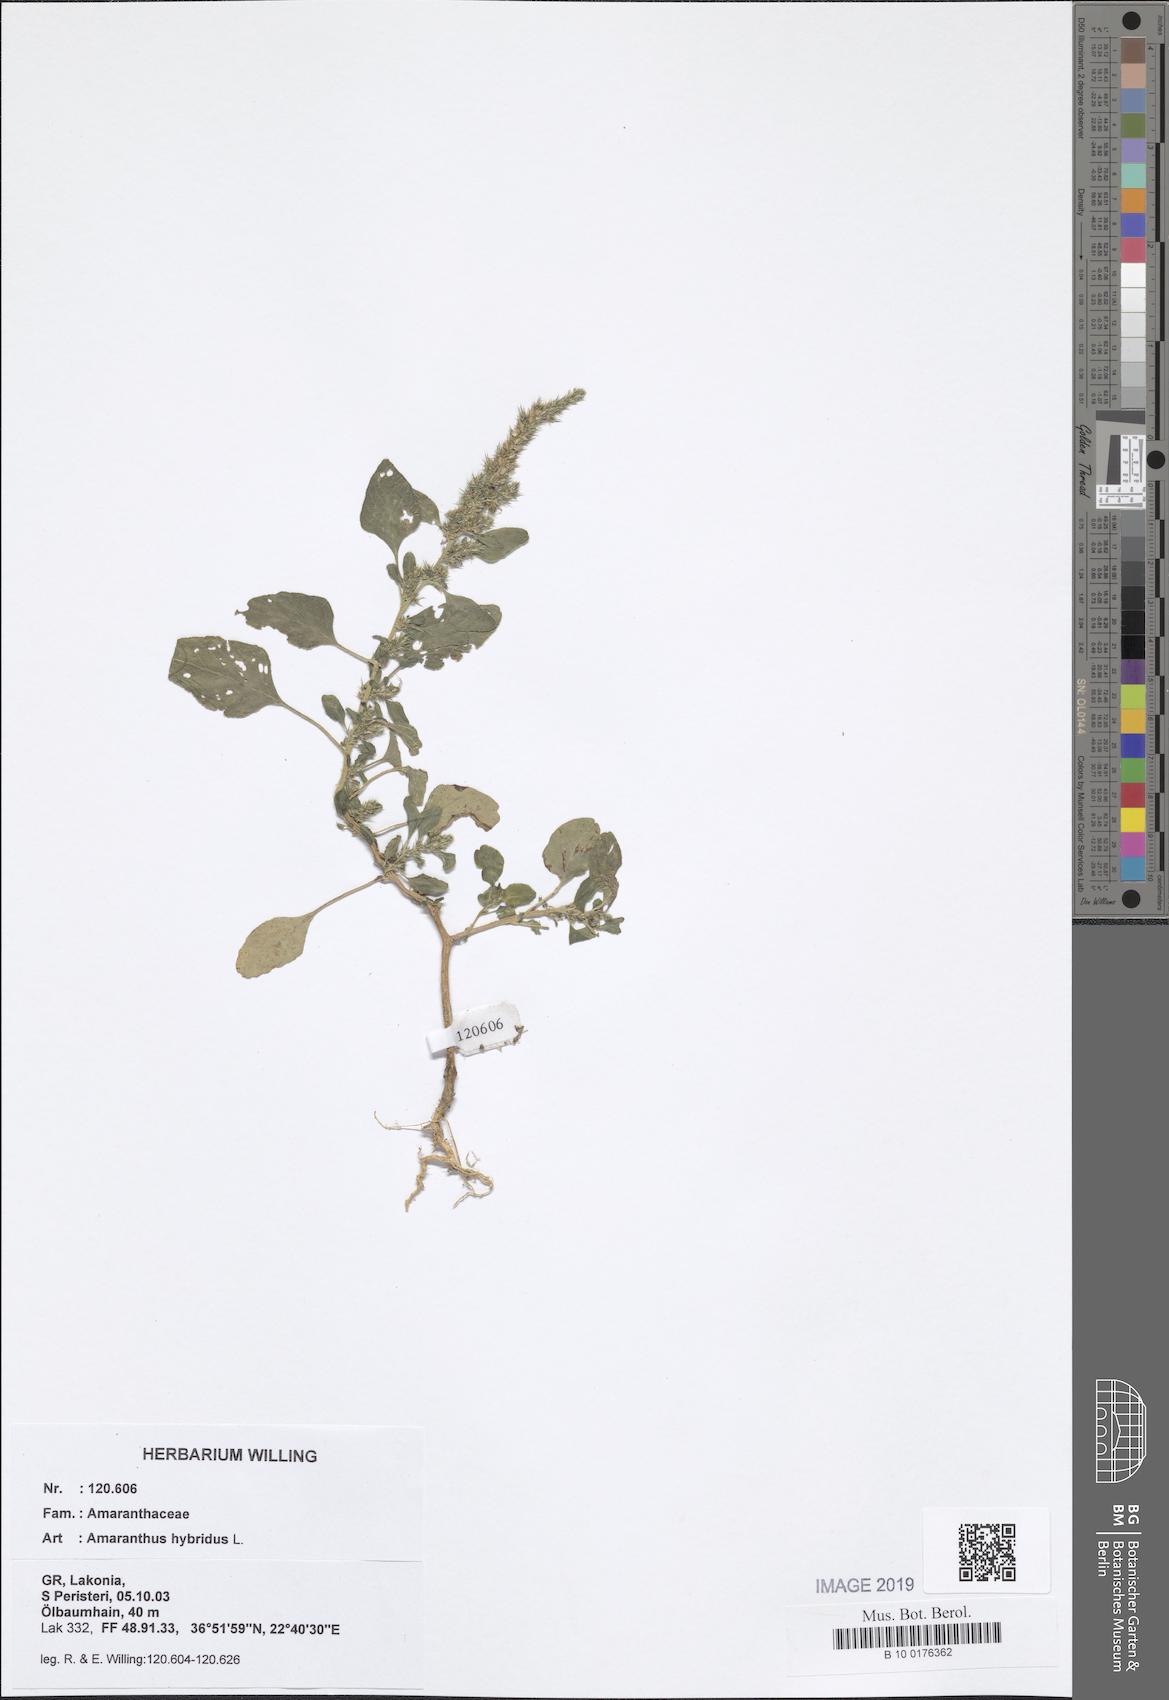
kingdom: Plantae
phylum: Tracheophyta
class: Magnoliopsida
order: Caryophyllales
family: Amaranthaceae
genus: Amaranthus
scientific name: Amaranthus hybridus
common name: Green amaranth
